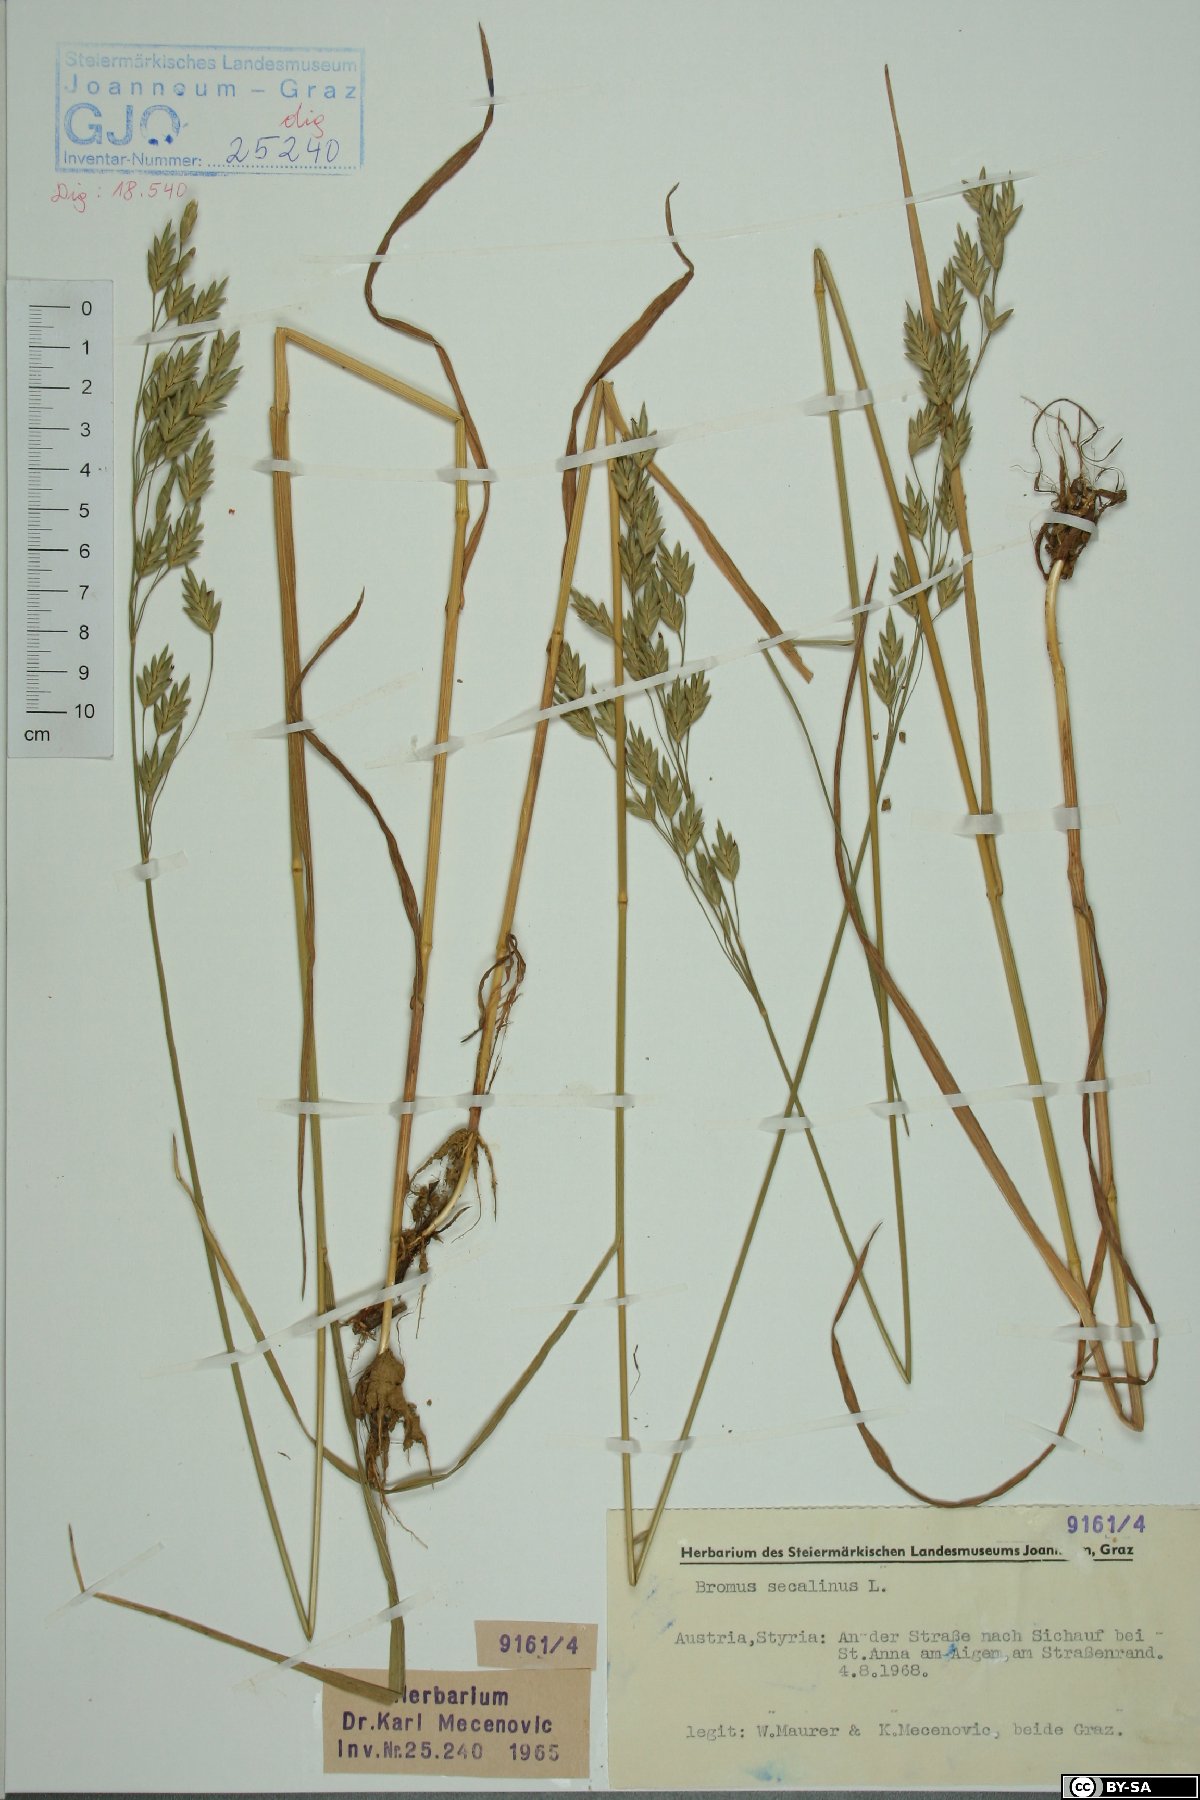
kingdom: Plantae
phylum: Tracheophyta
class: Liliopsida
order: Poales
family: Poaceae
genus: Bromus
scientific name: Bromus secalinus
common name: Rye brome
